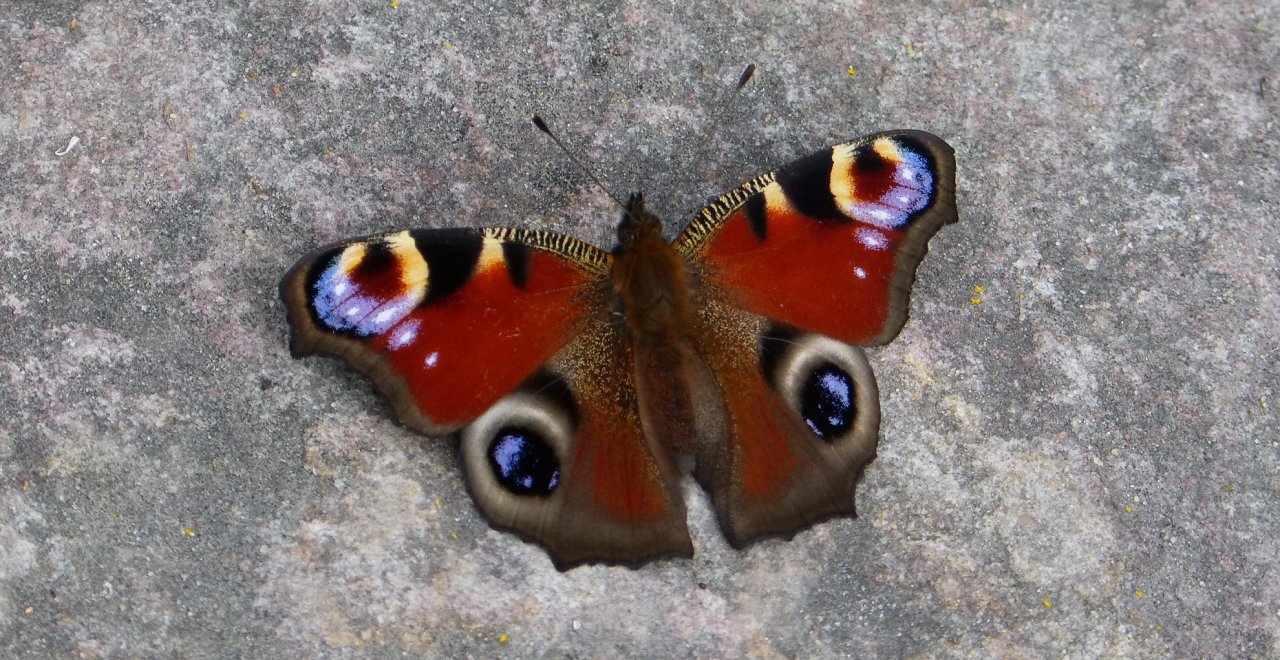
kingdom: Animalia
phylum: Arthropoda
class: Insecta
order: Lepidoptera
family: Nymphalidae
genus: Aglais
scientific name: Aglais io
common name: European Peacock
